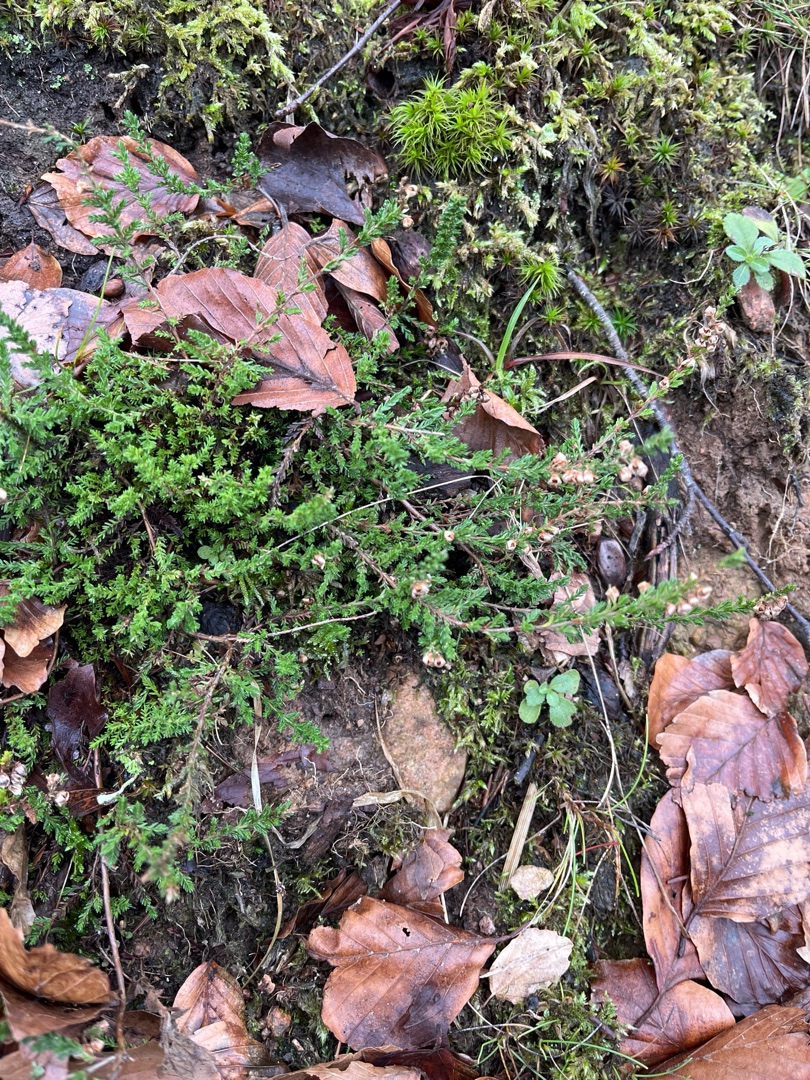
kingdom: Plantae
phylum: Tracheophyta
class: Magnoliopsida
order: Ericales
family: Ericaceae
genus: Calluna
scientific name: Calluna vulgaris
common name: Hedelyng
